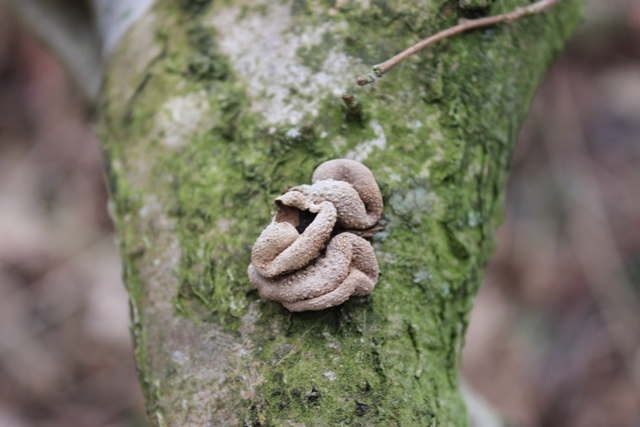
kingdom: Fungi
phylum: Ascomycota
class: Leotiomycetes
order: Helotiales
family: Cenangiaceae
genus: Encoelia
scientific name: Encoelia furfuracea
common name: hassel-læderskive
